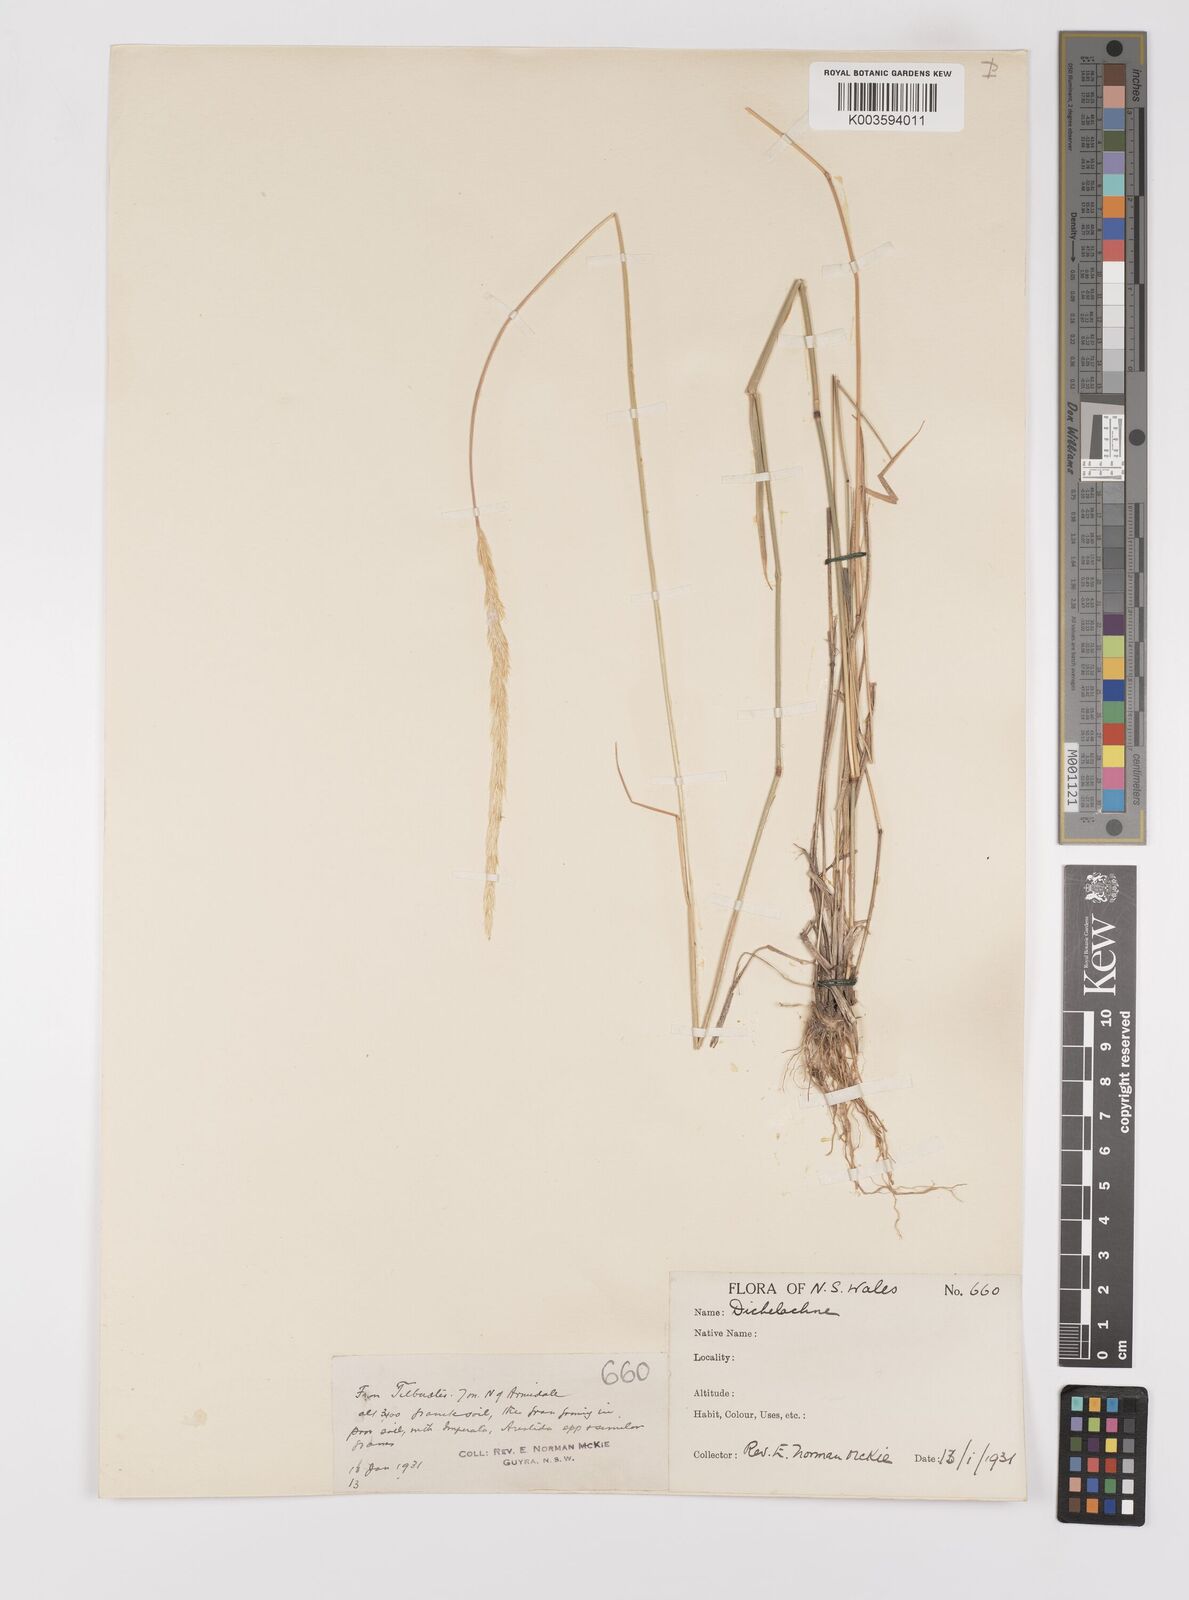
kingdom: Plantae
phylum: Tracheophyta
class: Liliopsida
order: Poales
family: Poaceae
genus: Dichelachne
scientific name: Dichelachne micrantha
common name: Plumegrass
